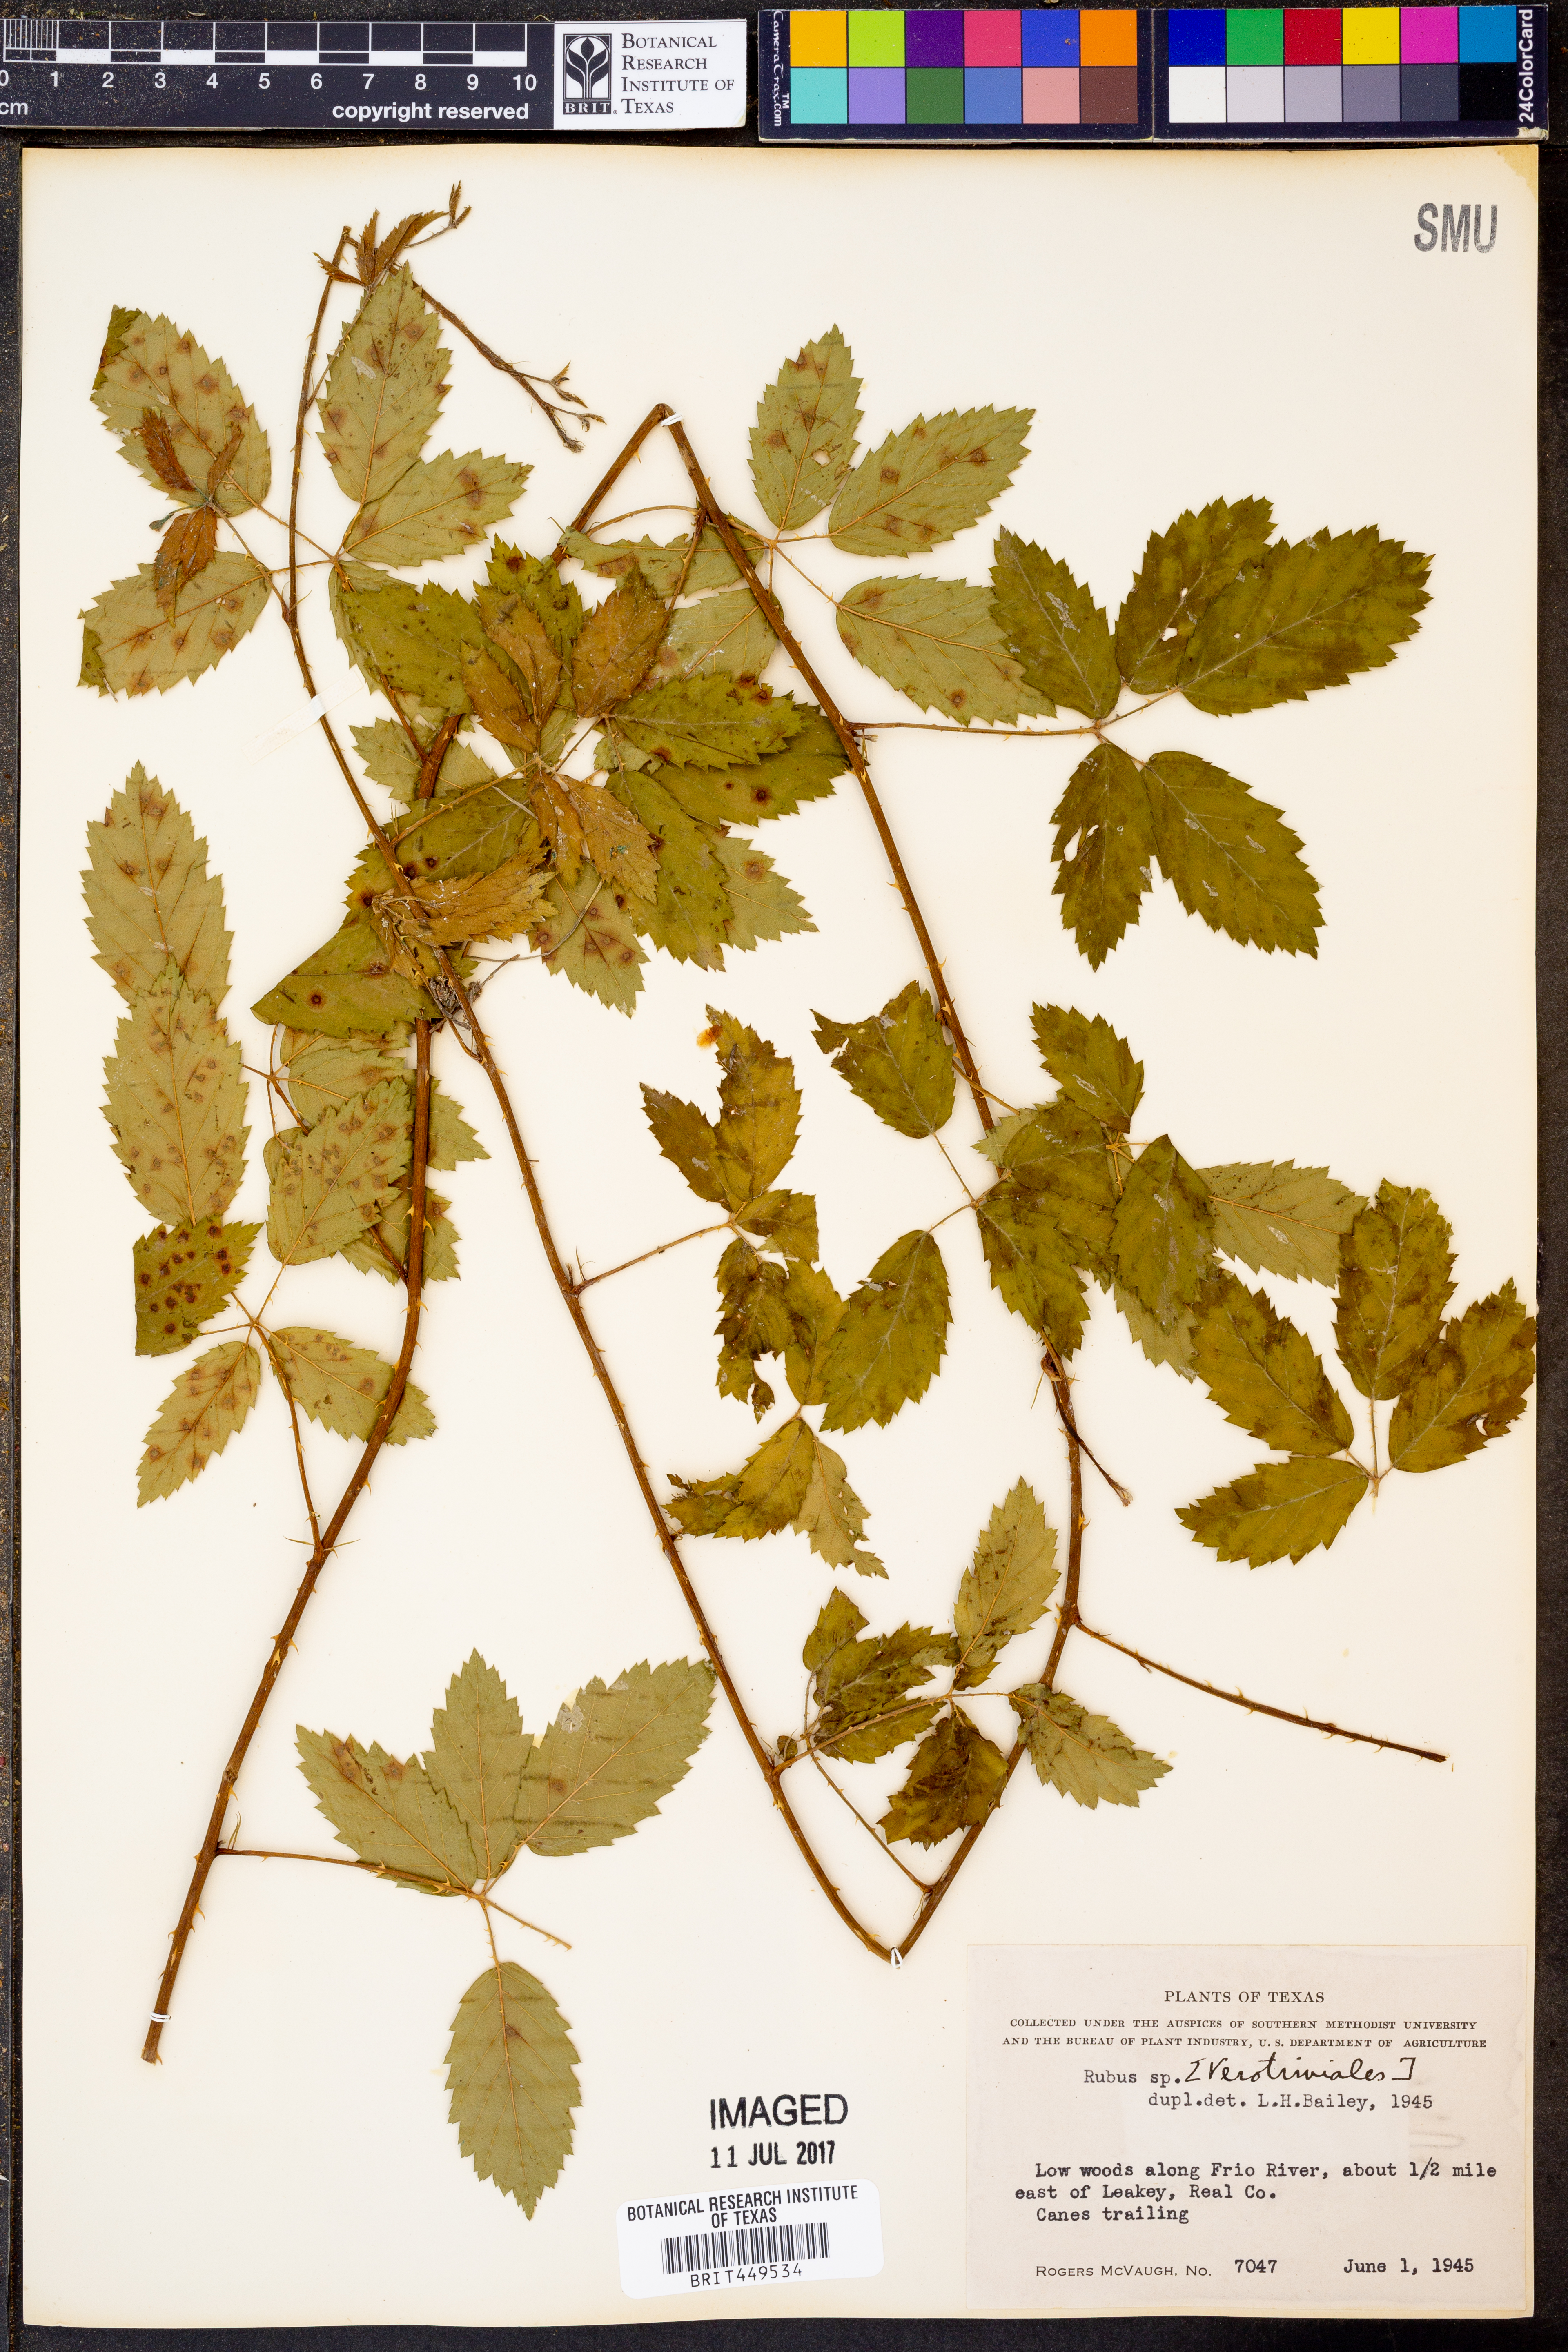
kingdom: Plantae
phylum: Tracheophyta
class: Magnoliopsida
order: Rosales
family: Rosaceae
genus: Rubus
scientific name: Rubus
